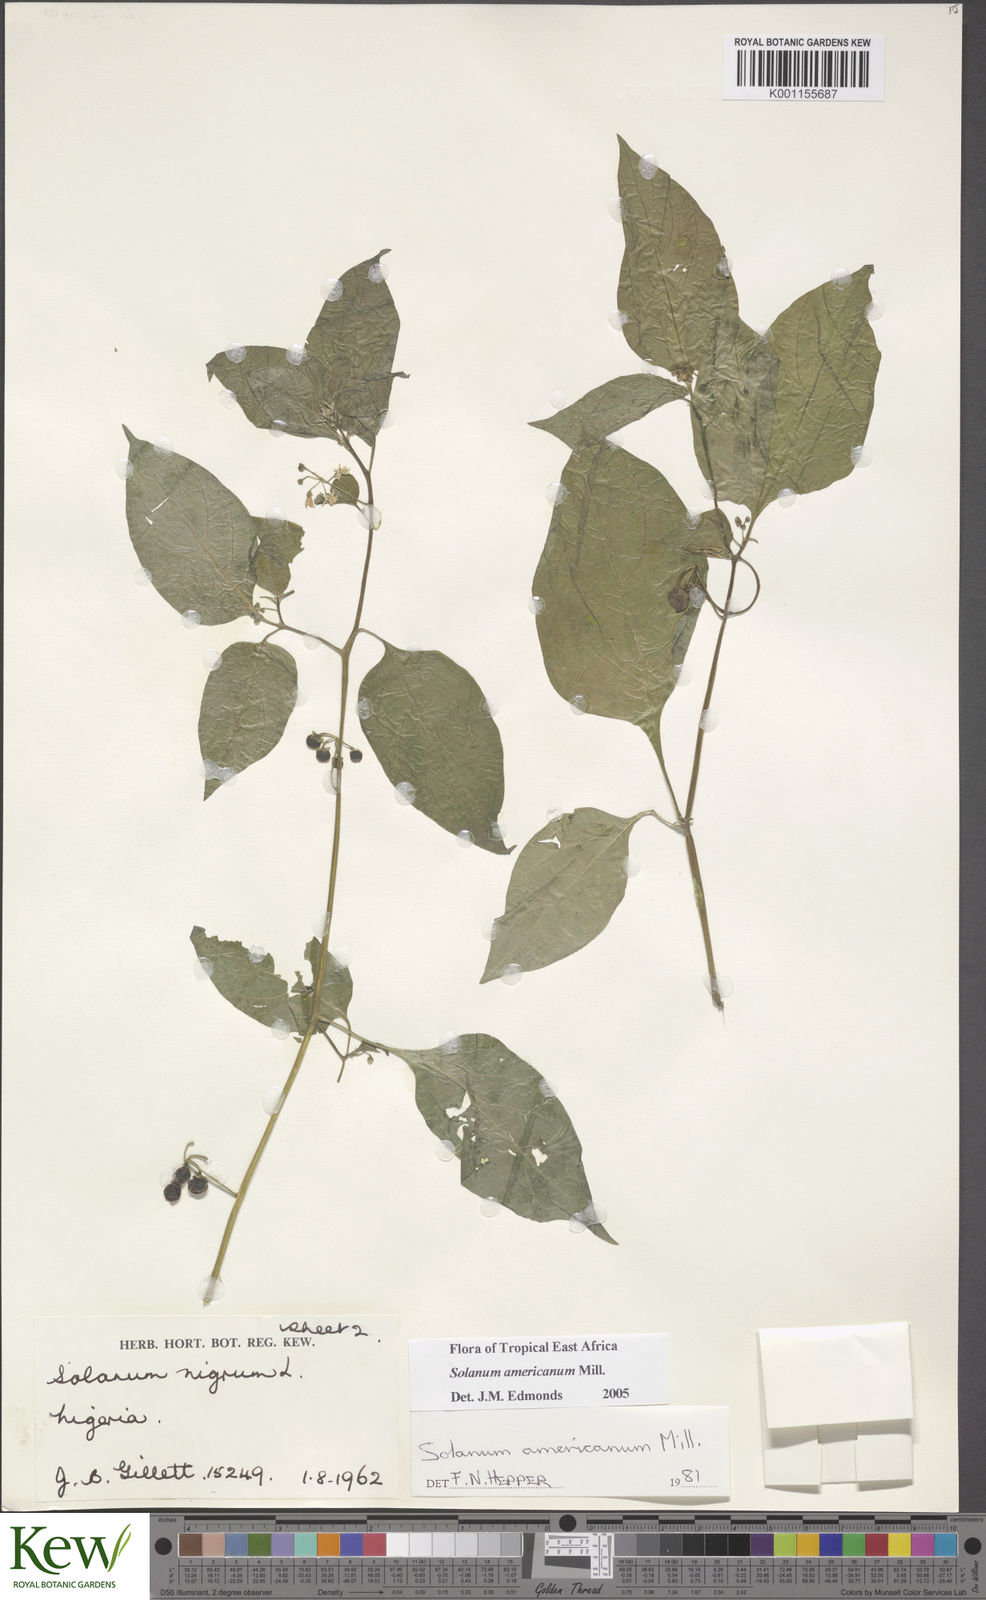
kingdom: Plantae
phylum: Tracheophyta
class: Magnoliopsida
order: Solanales
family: Solanaceae
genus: Solanum
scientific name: Solanum scabrum
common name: Garden-huckleberry
